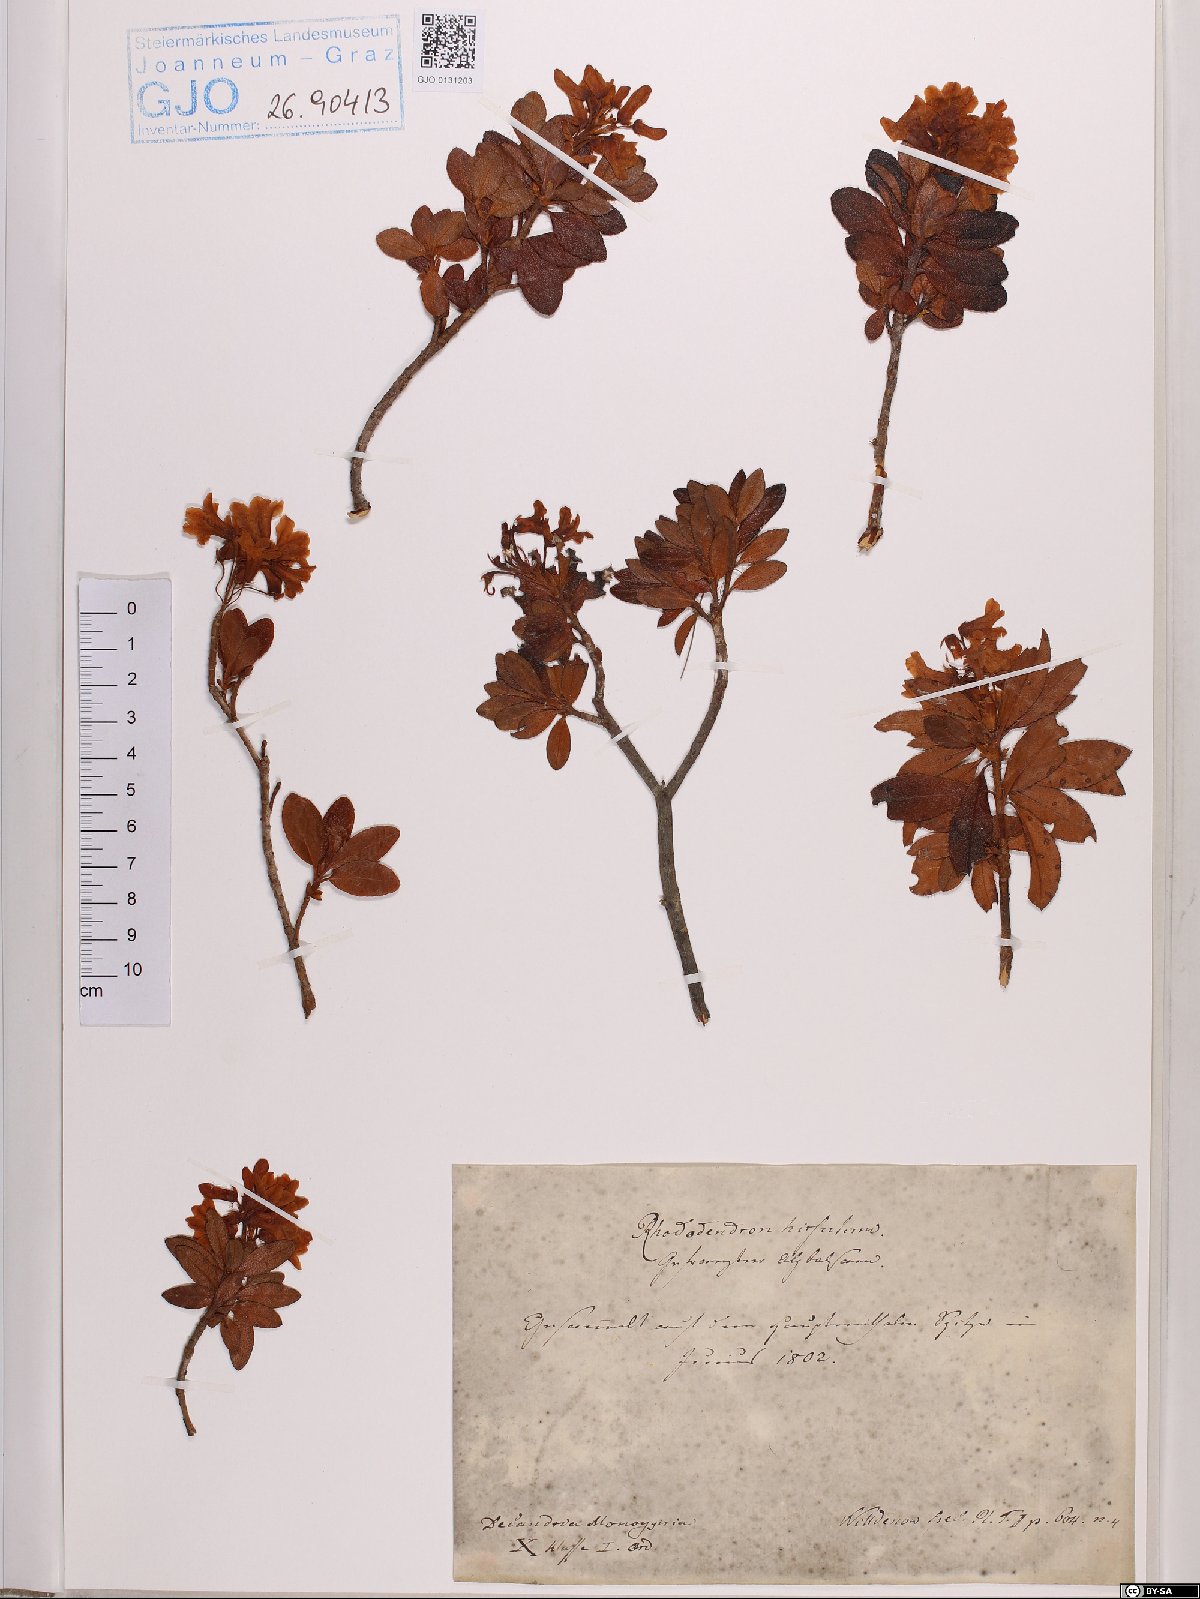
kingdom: Plantae
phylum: Tracheophyta
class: Magnoliopsida
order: Ericales
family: Ericaceae
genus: Rhododendron
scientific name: Rhododendron hirsutum
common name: Hairy alpenrose
